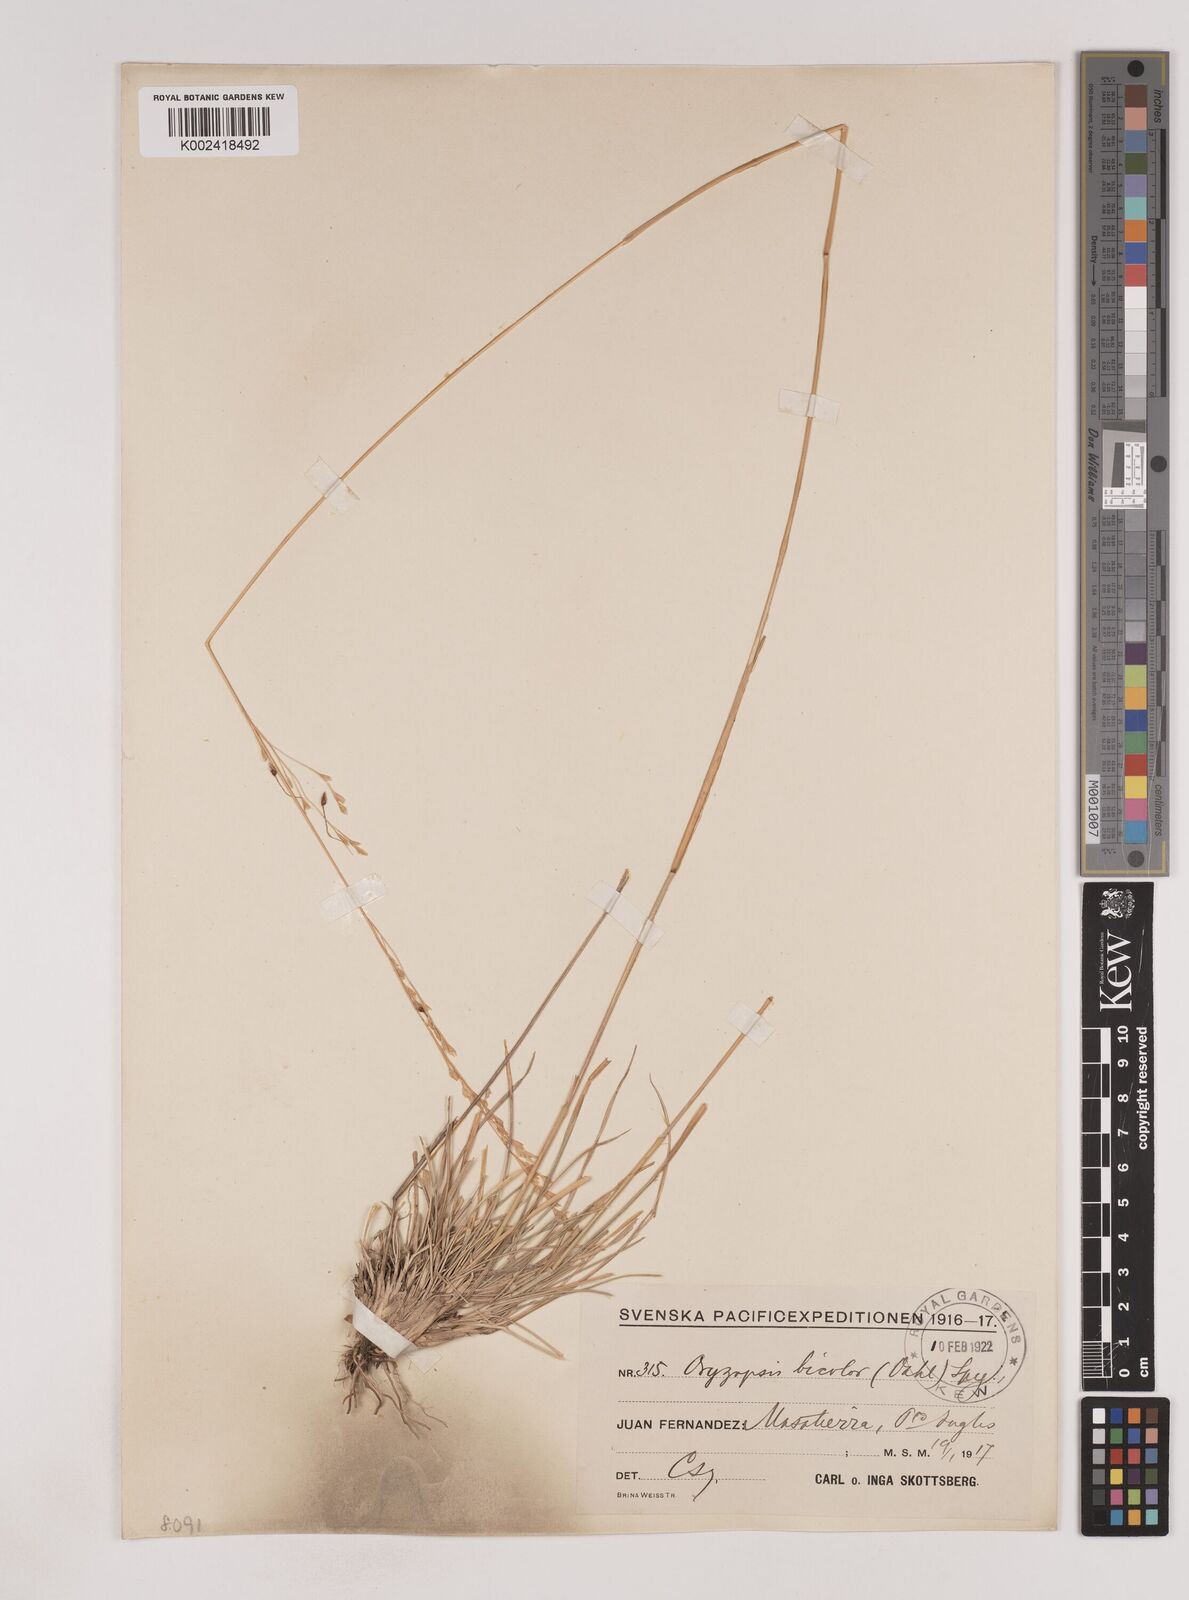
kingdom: Plantae
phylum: Tracheophyta
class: Liliopsida
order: Poales
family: Poaceae
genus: Piptochaetium
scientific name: Piptochaetium bicolor
